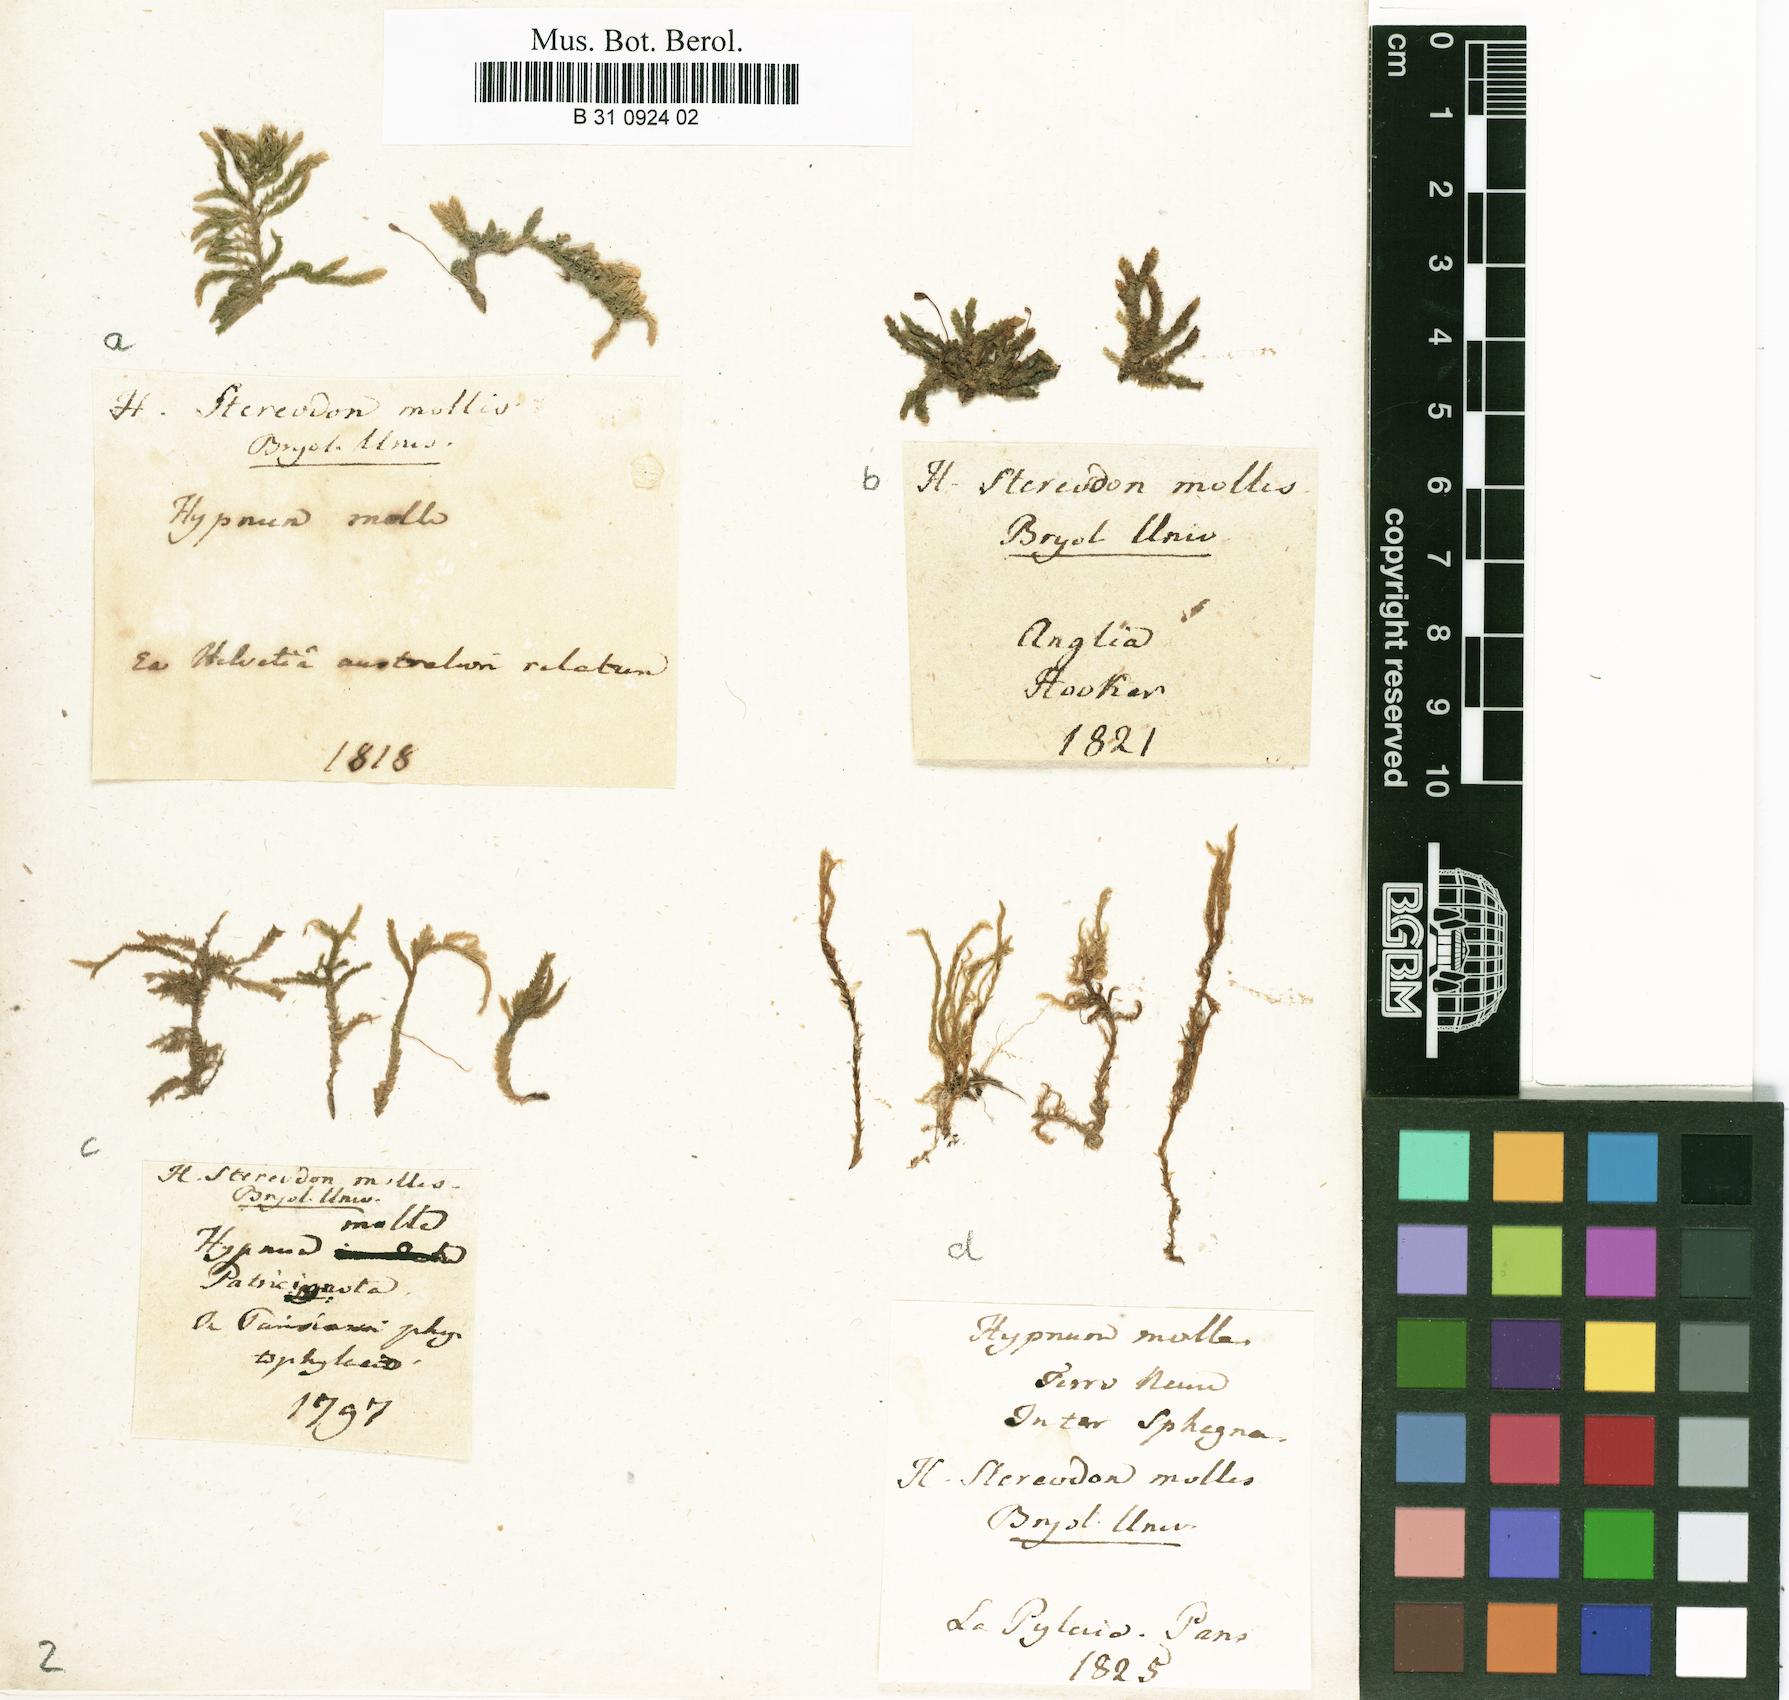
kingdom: Plantae
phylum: Bryophyta
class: Bryopsida
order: Hypnales
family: Lembophyllaceae
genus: Weymouthia
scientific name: Weymouthia mollis
